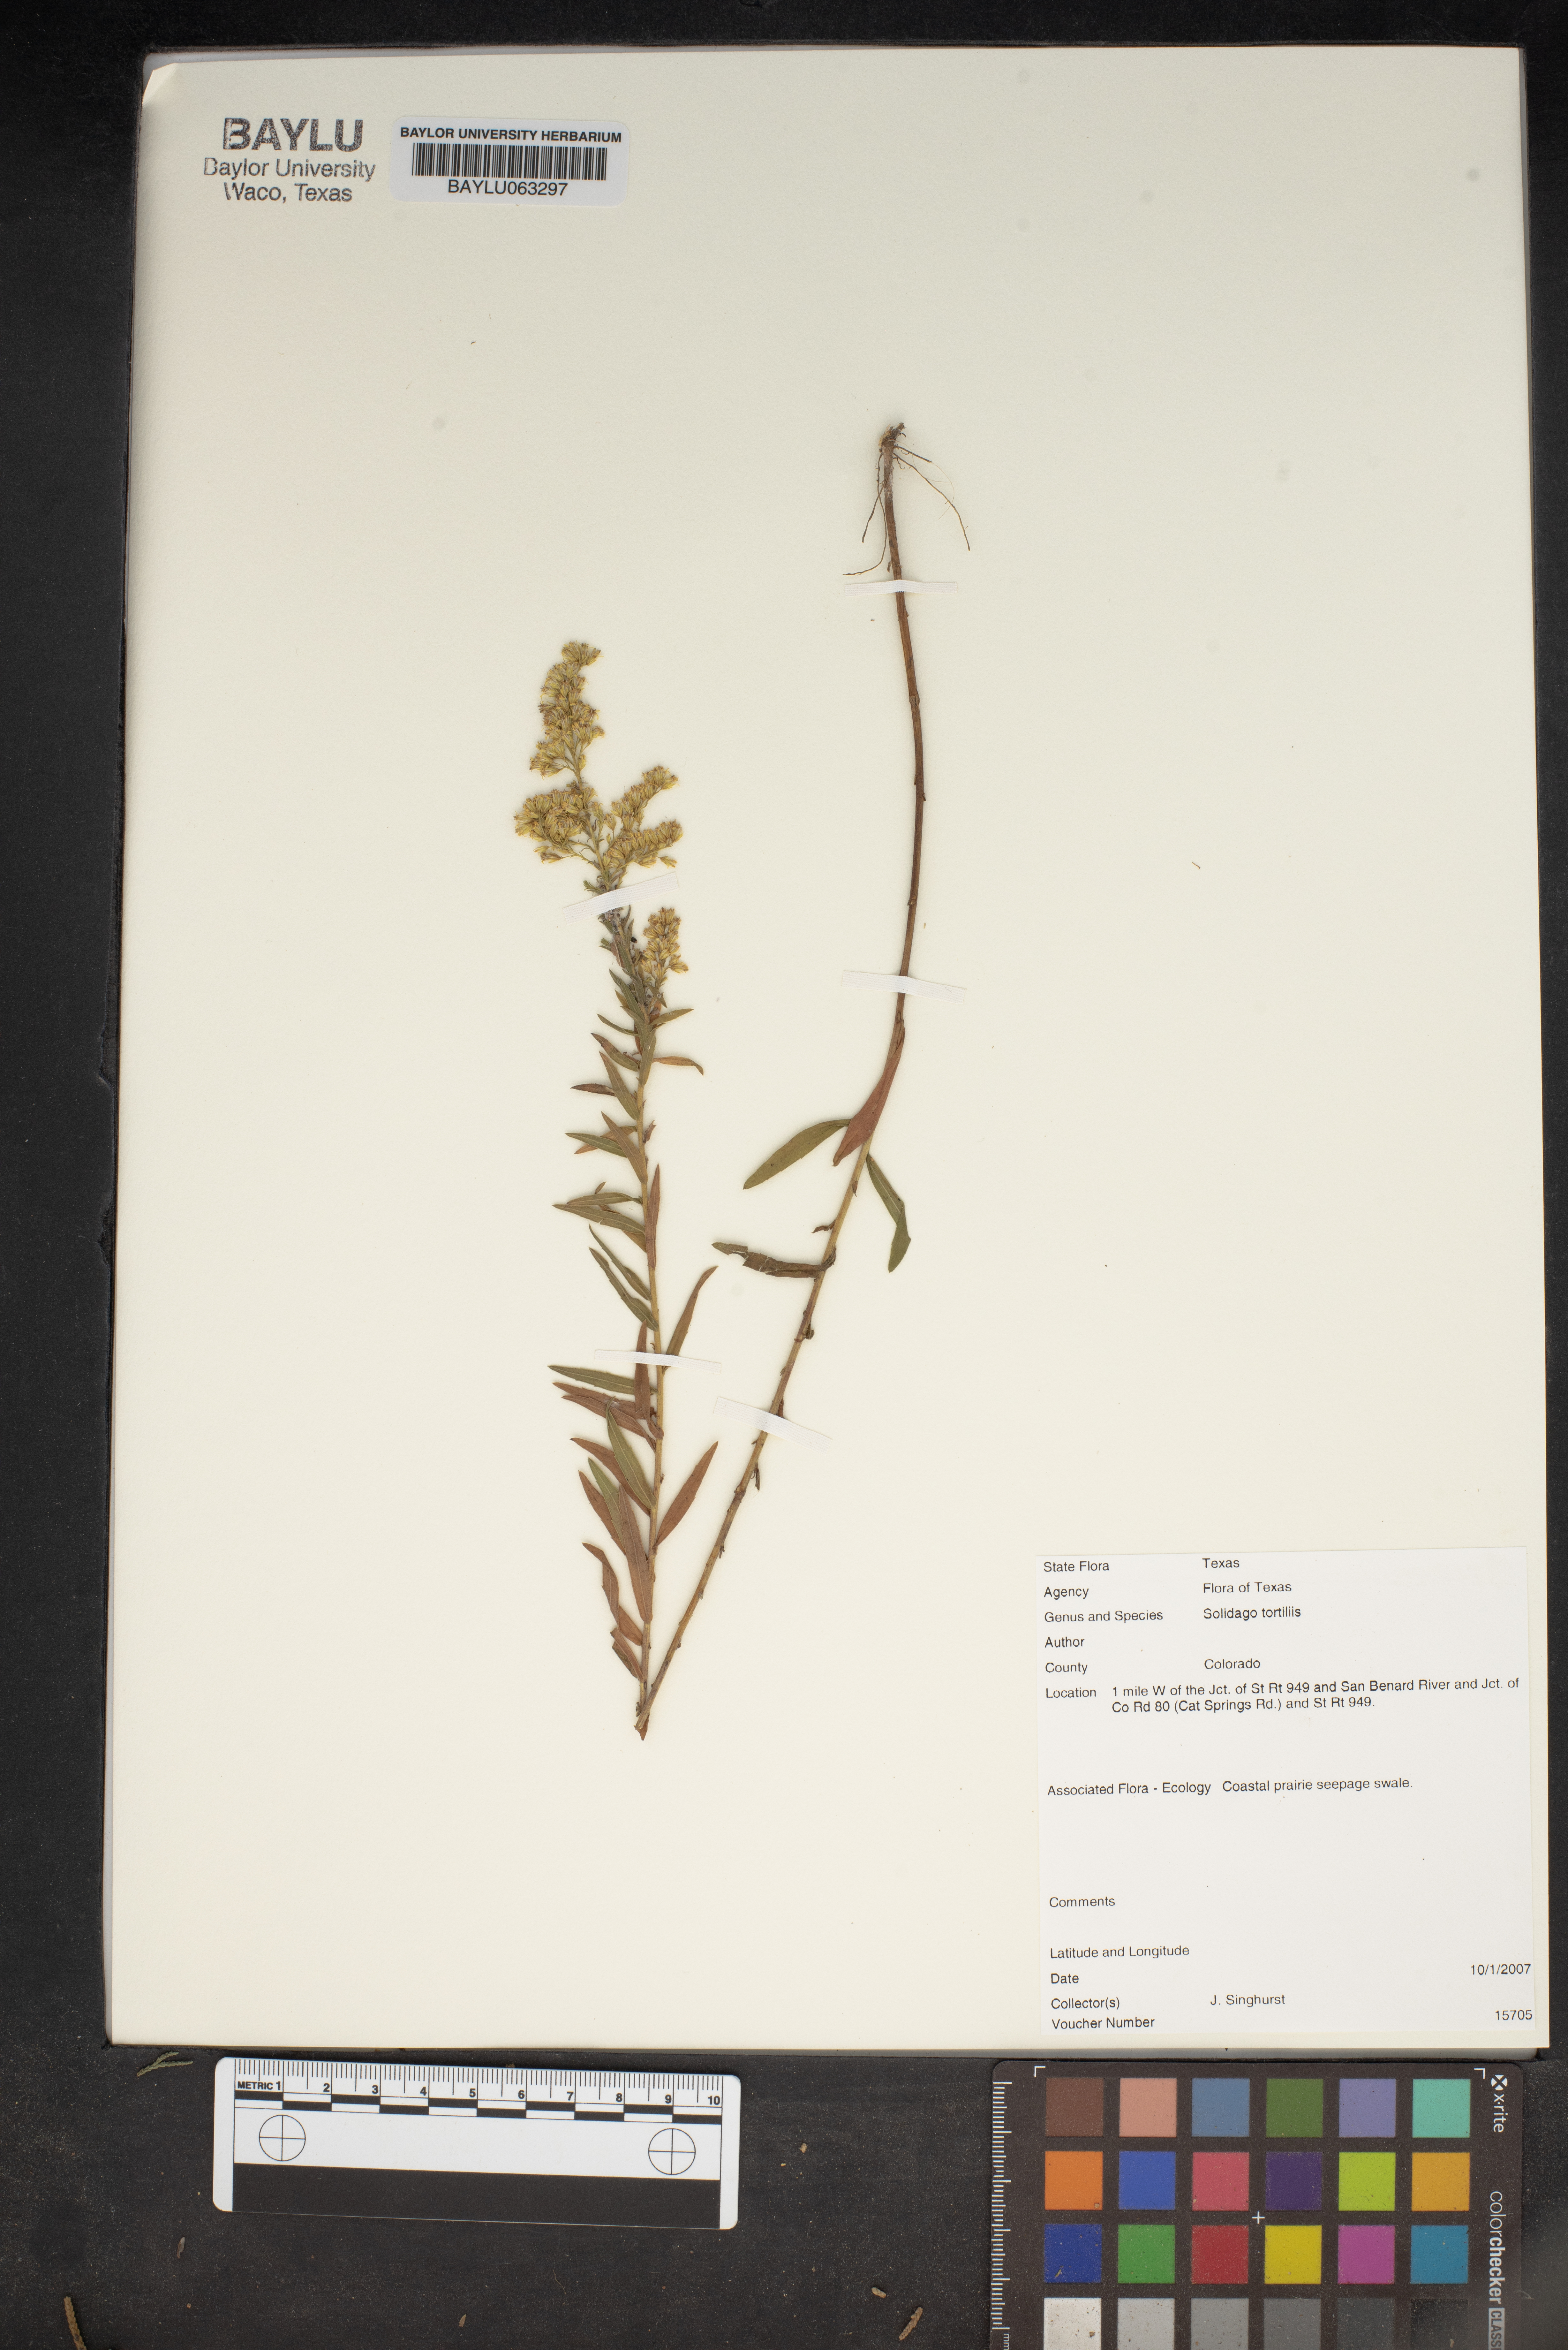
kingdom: Plantae
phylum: Tracheophyta
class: Magnoliopsida
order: Asterales
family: Asteraceae
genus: Solidago
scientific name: Solidago tortifolia
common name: Twisted-leaf goldenrod
